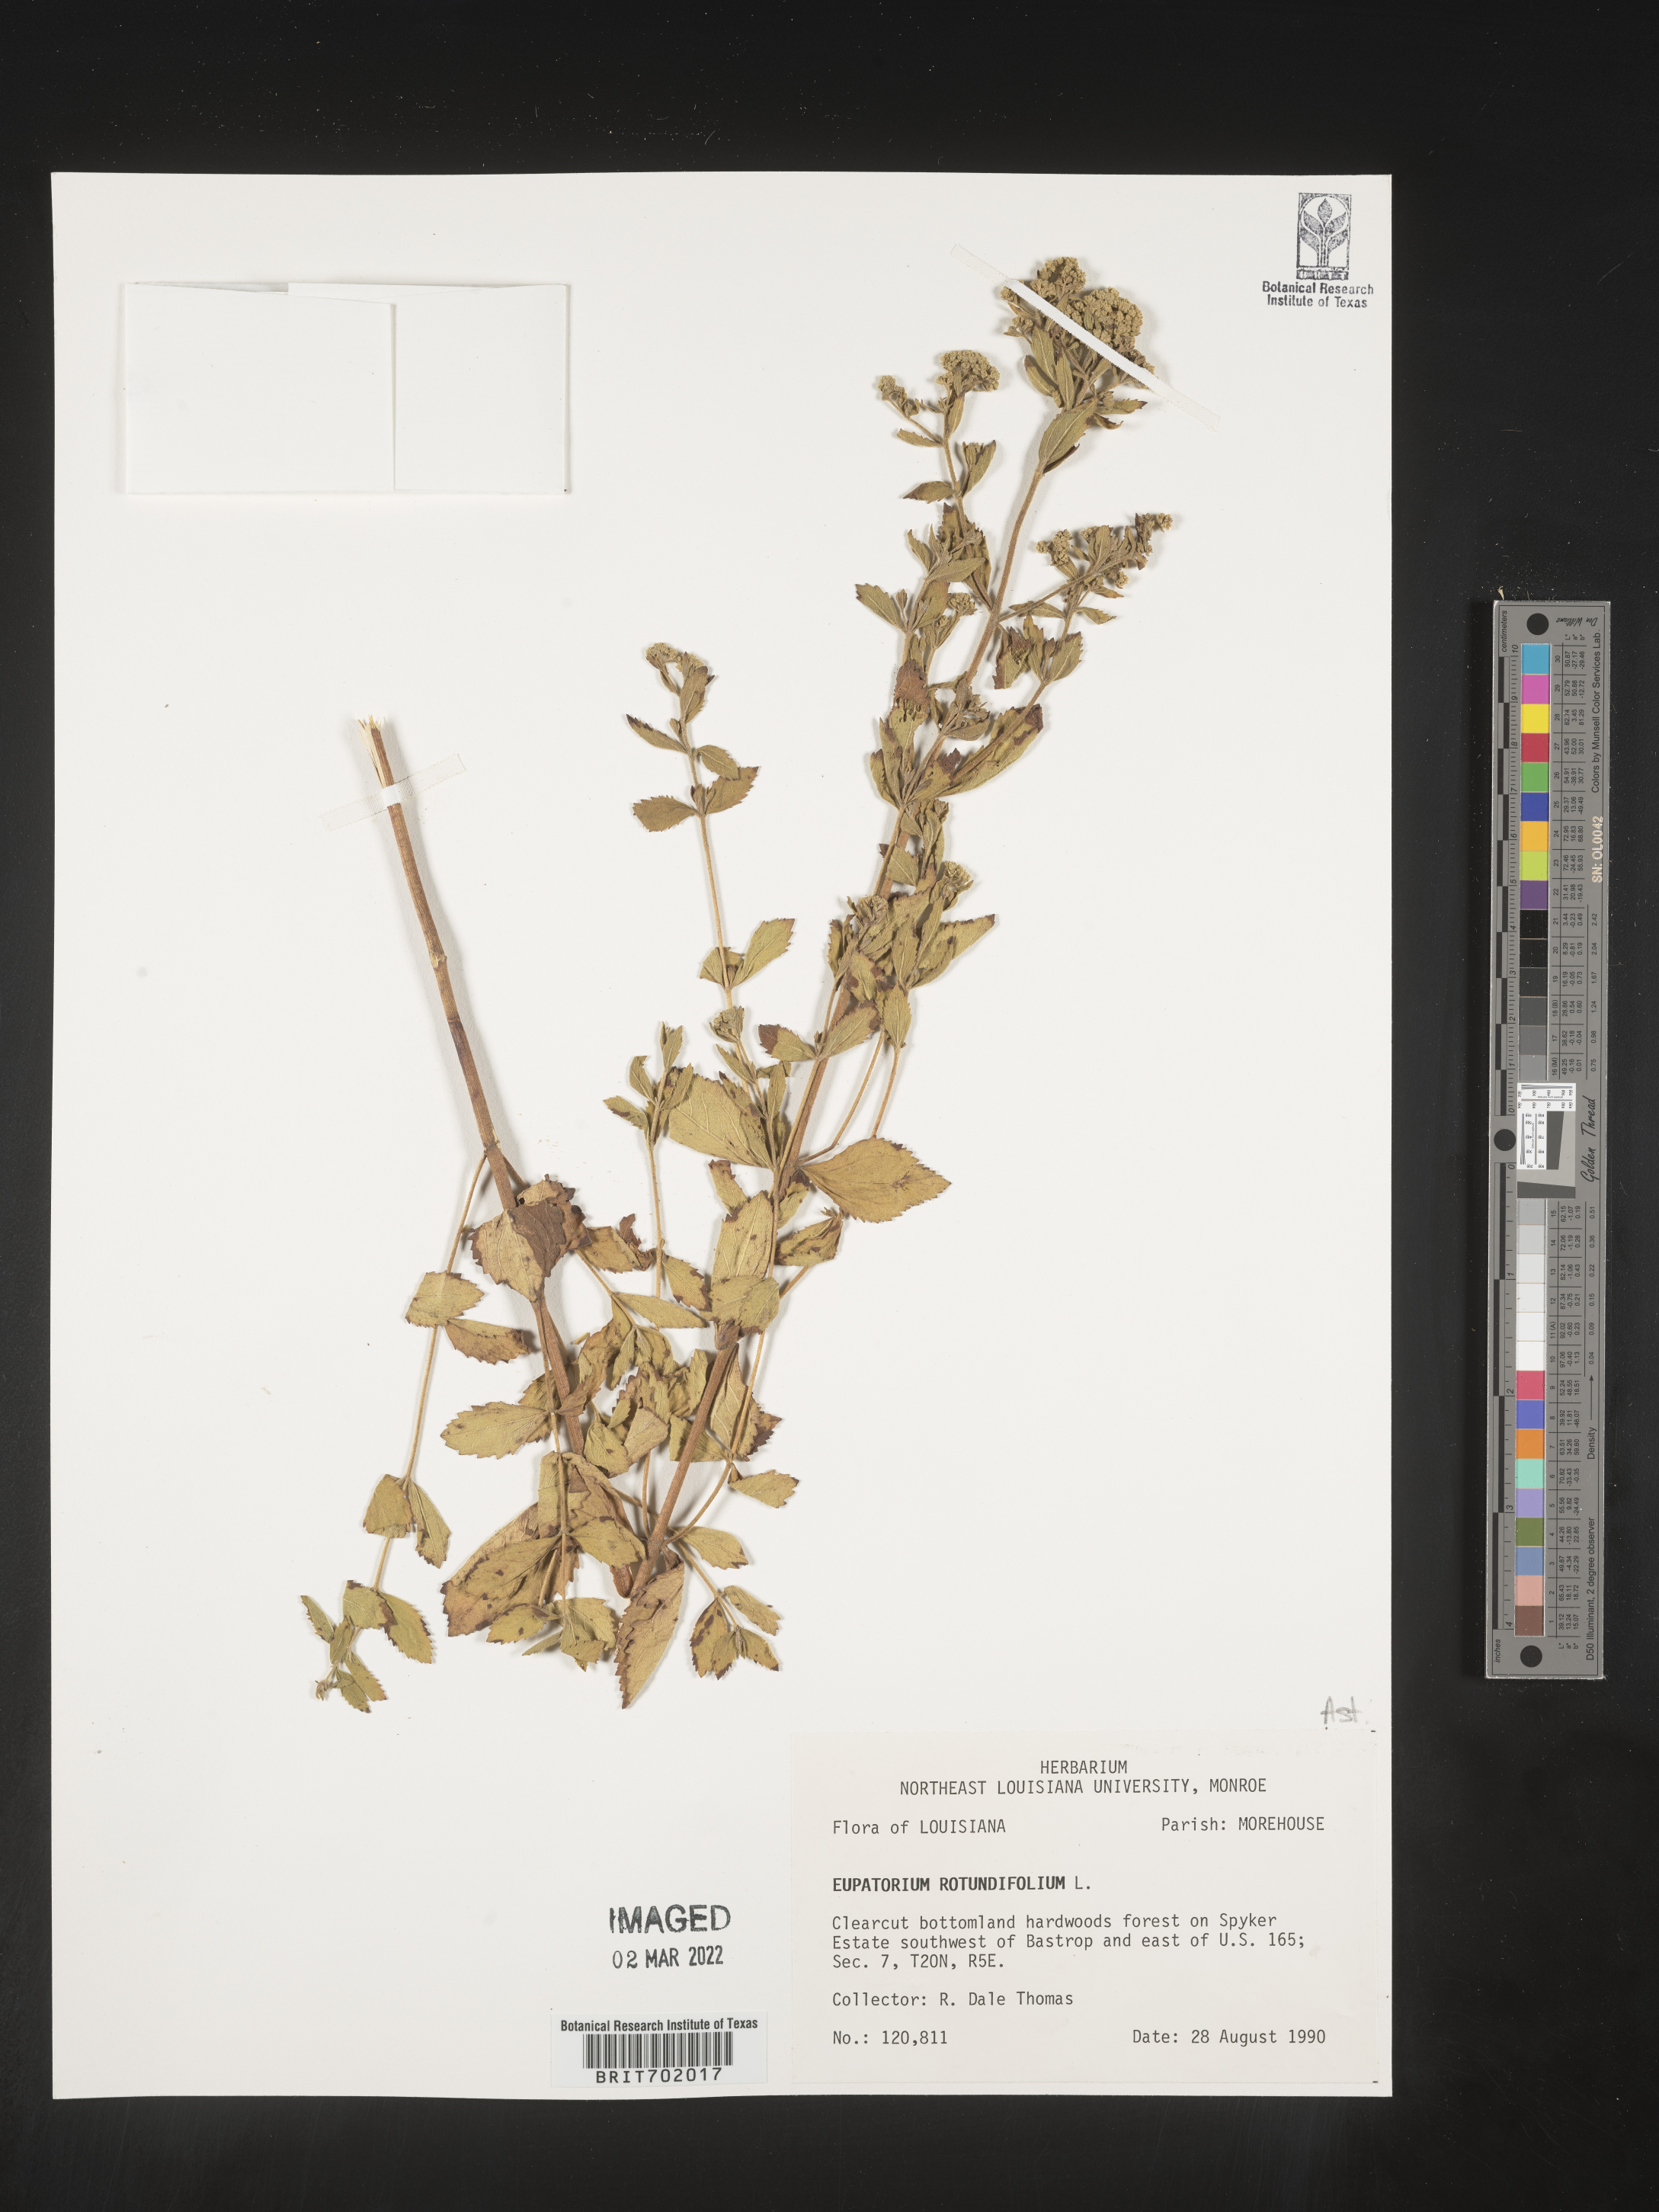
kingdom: Plantae
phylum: Tracheophyta
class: Magnoliopsida
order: Asterales
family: Asteraceae
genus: Eupatorium
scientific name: Eupatorium rotundifolium
